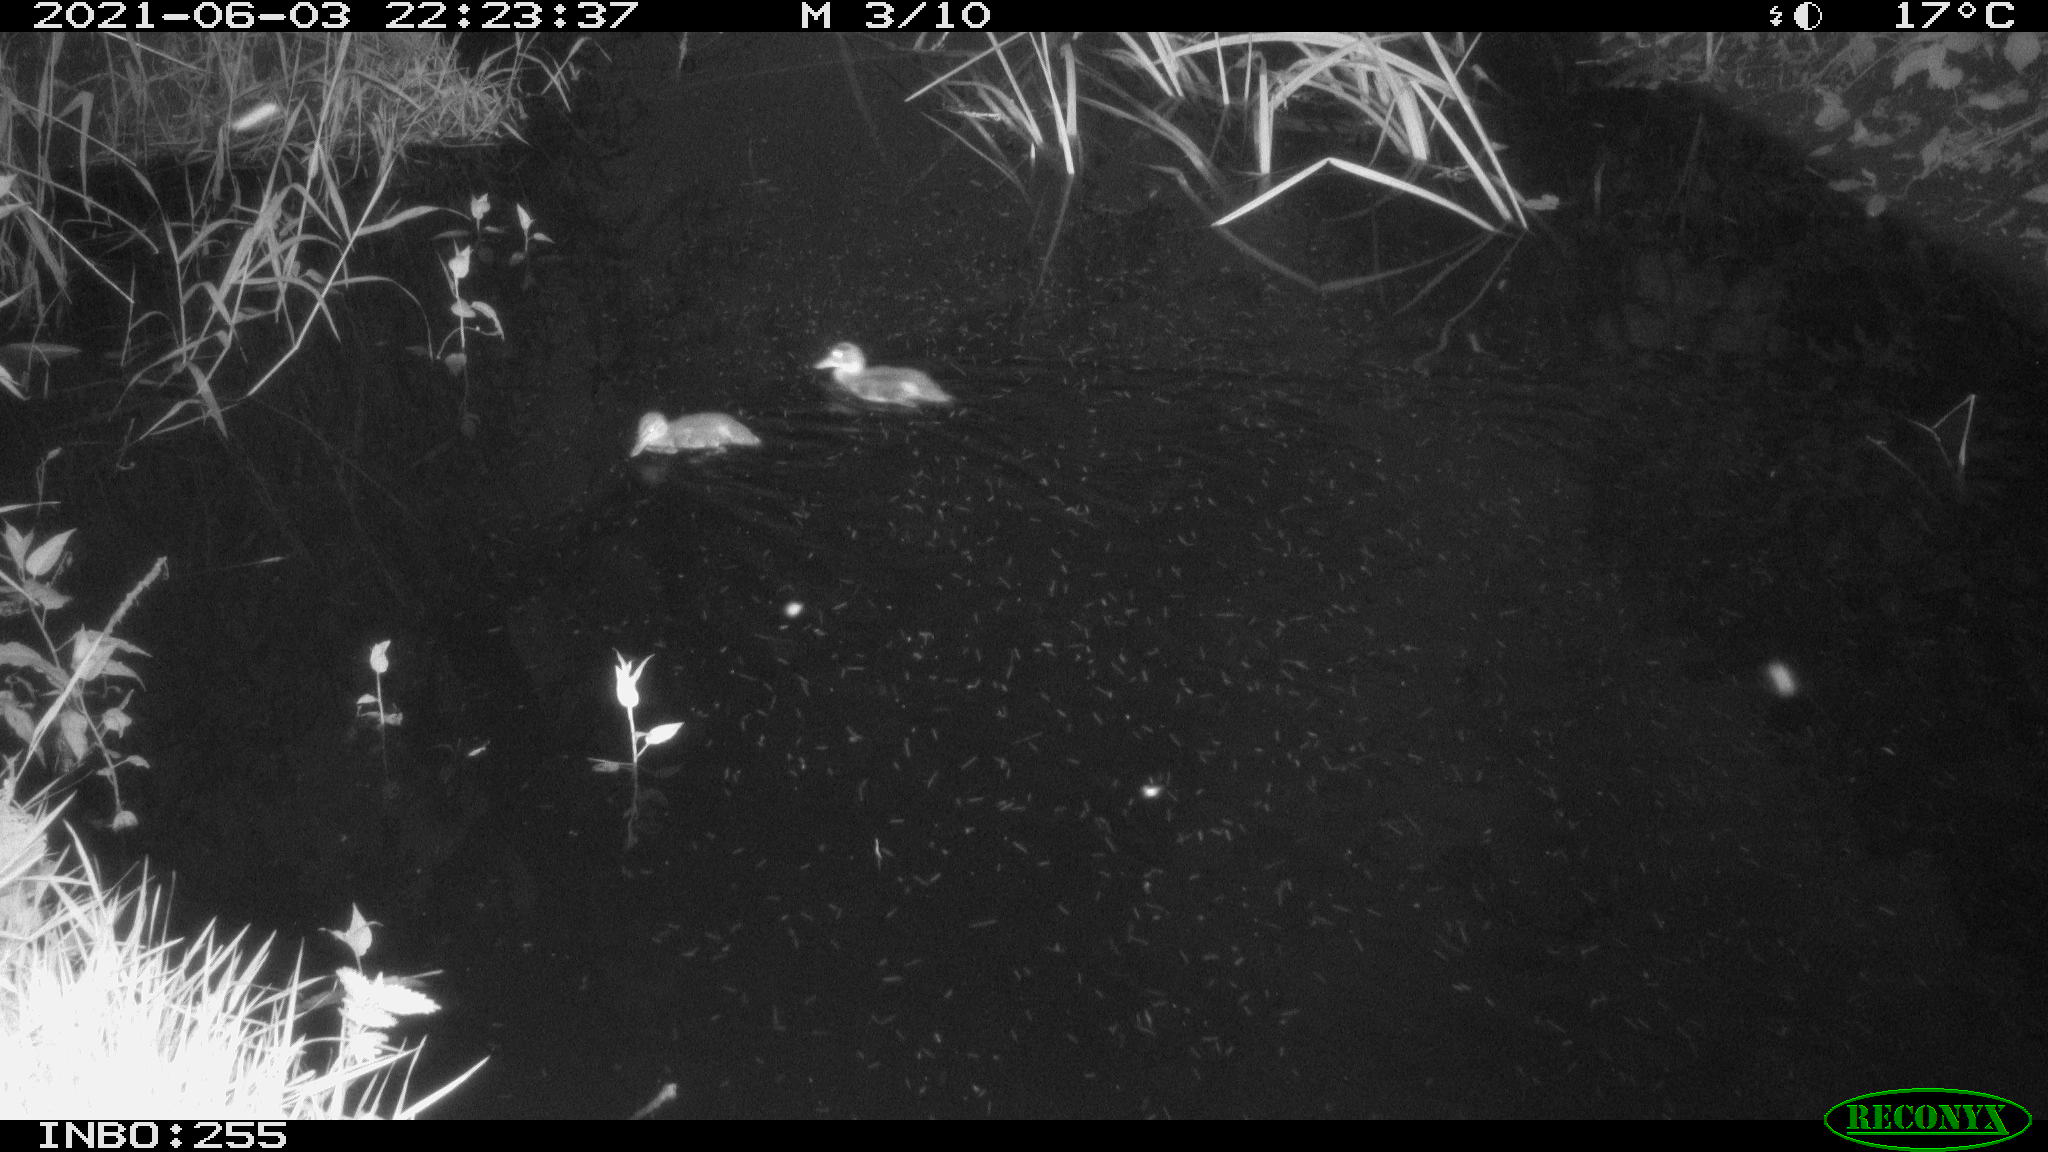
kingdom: Animalia
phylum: Chordata
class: Aves
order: Anseriformes
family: Anatidae
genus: Anas
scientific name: Anas
